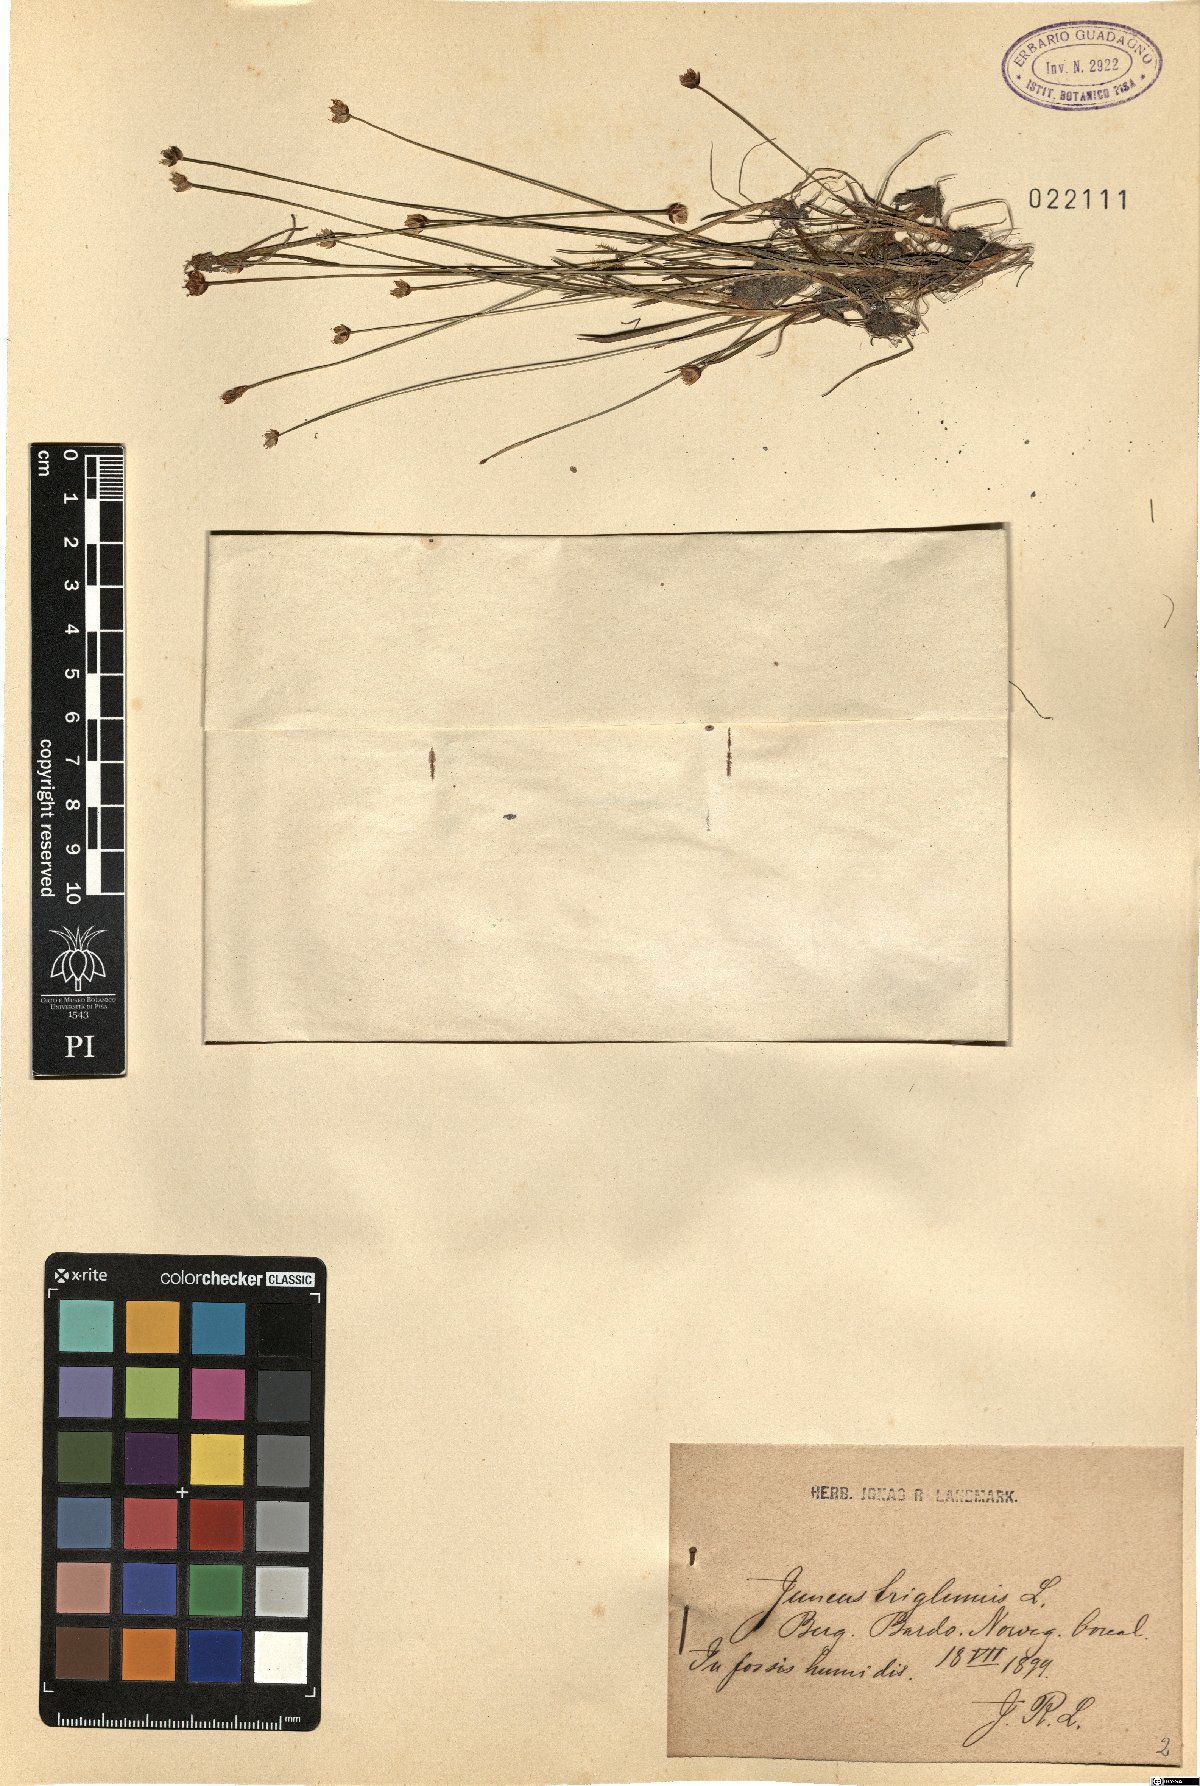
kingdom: Plantae
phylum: Tracheophyta
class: Liliopsida
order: Poales
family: Juncaceae
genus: Juncus
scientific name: Juncus biglumis
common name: Two-flowered rush
